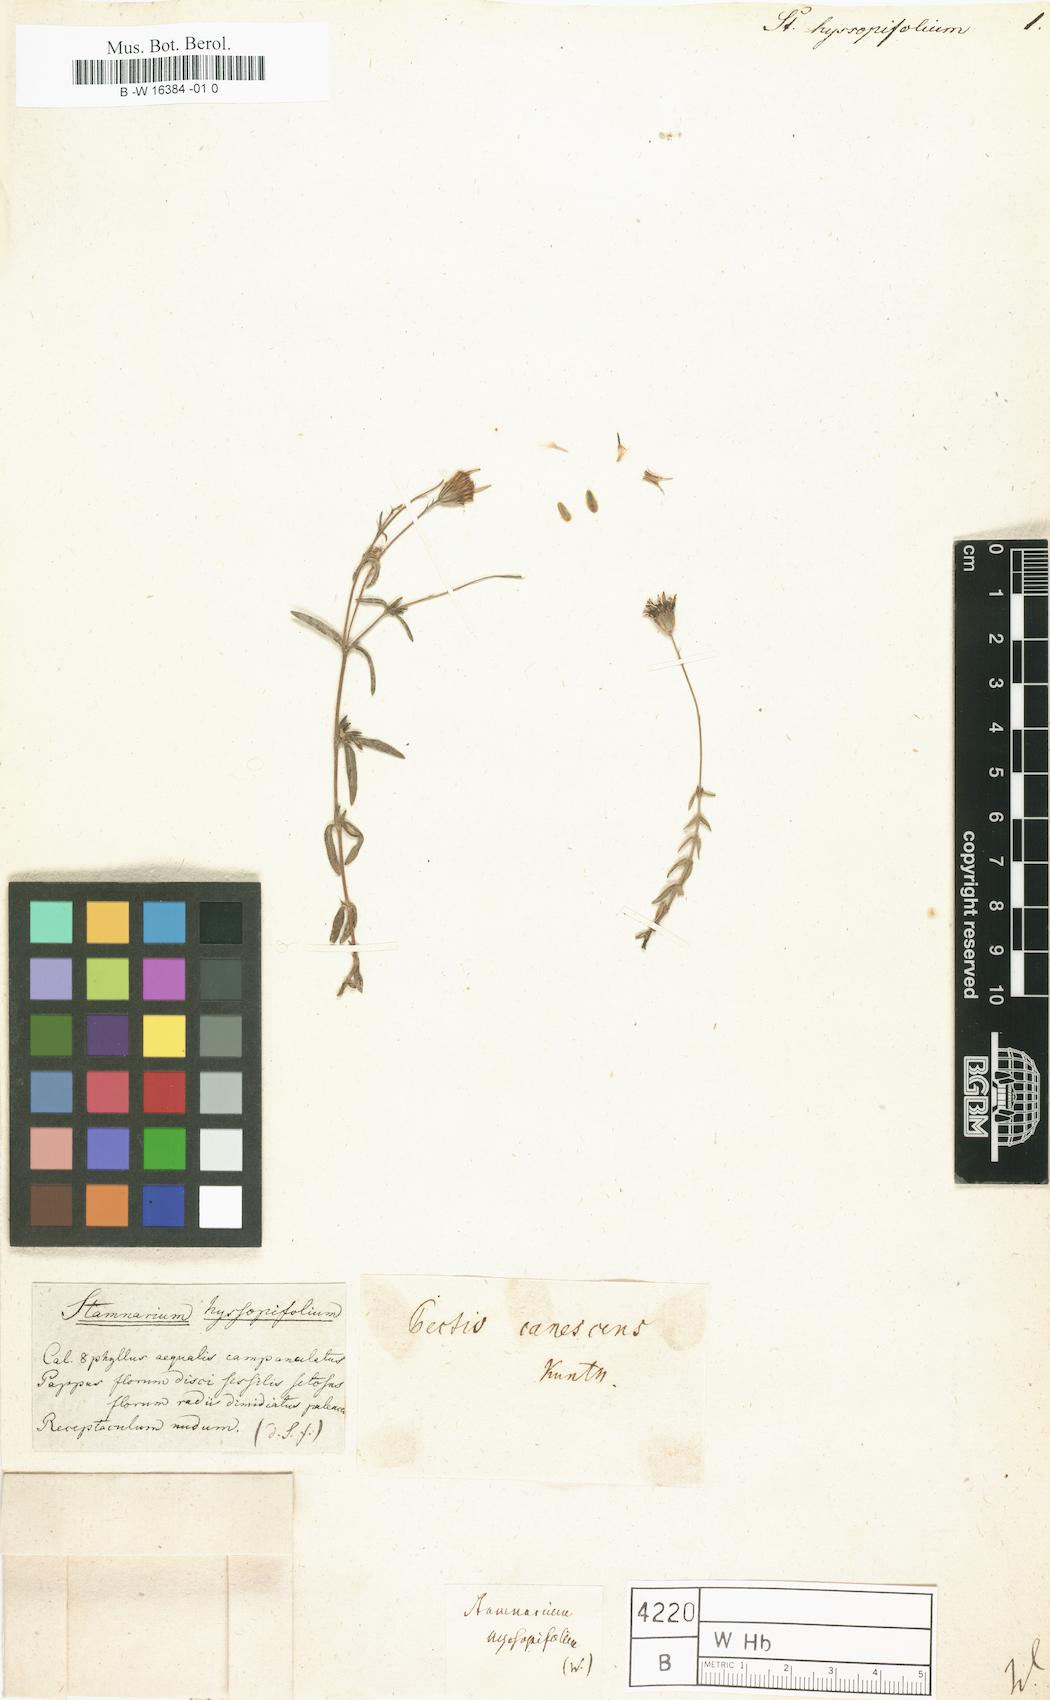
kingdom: Plantae
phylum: Tracheophyta
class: Magnoliopsida
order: Asterales
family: Asteraceae
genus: Pectis
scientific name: Pectis canescens
